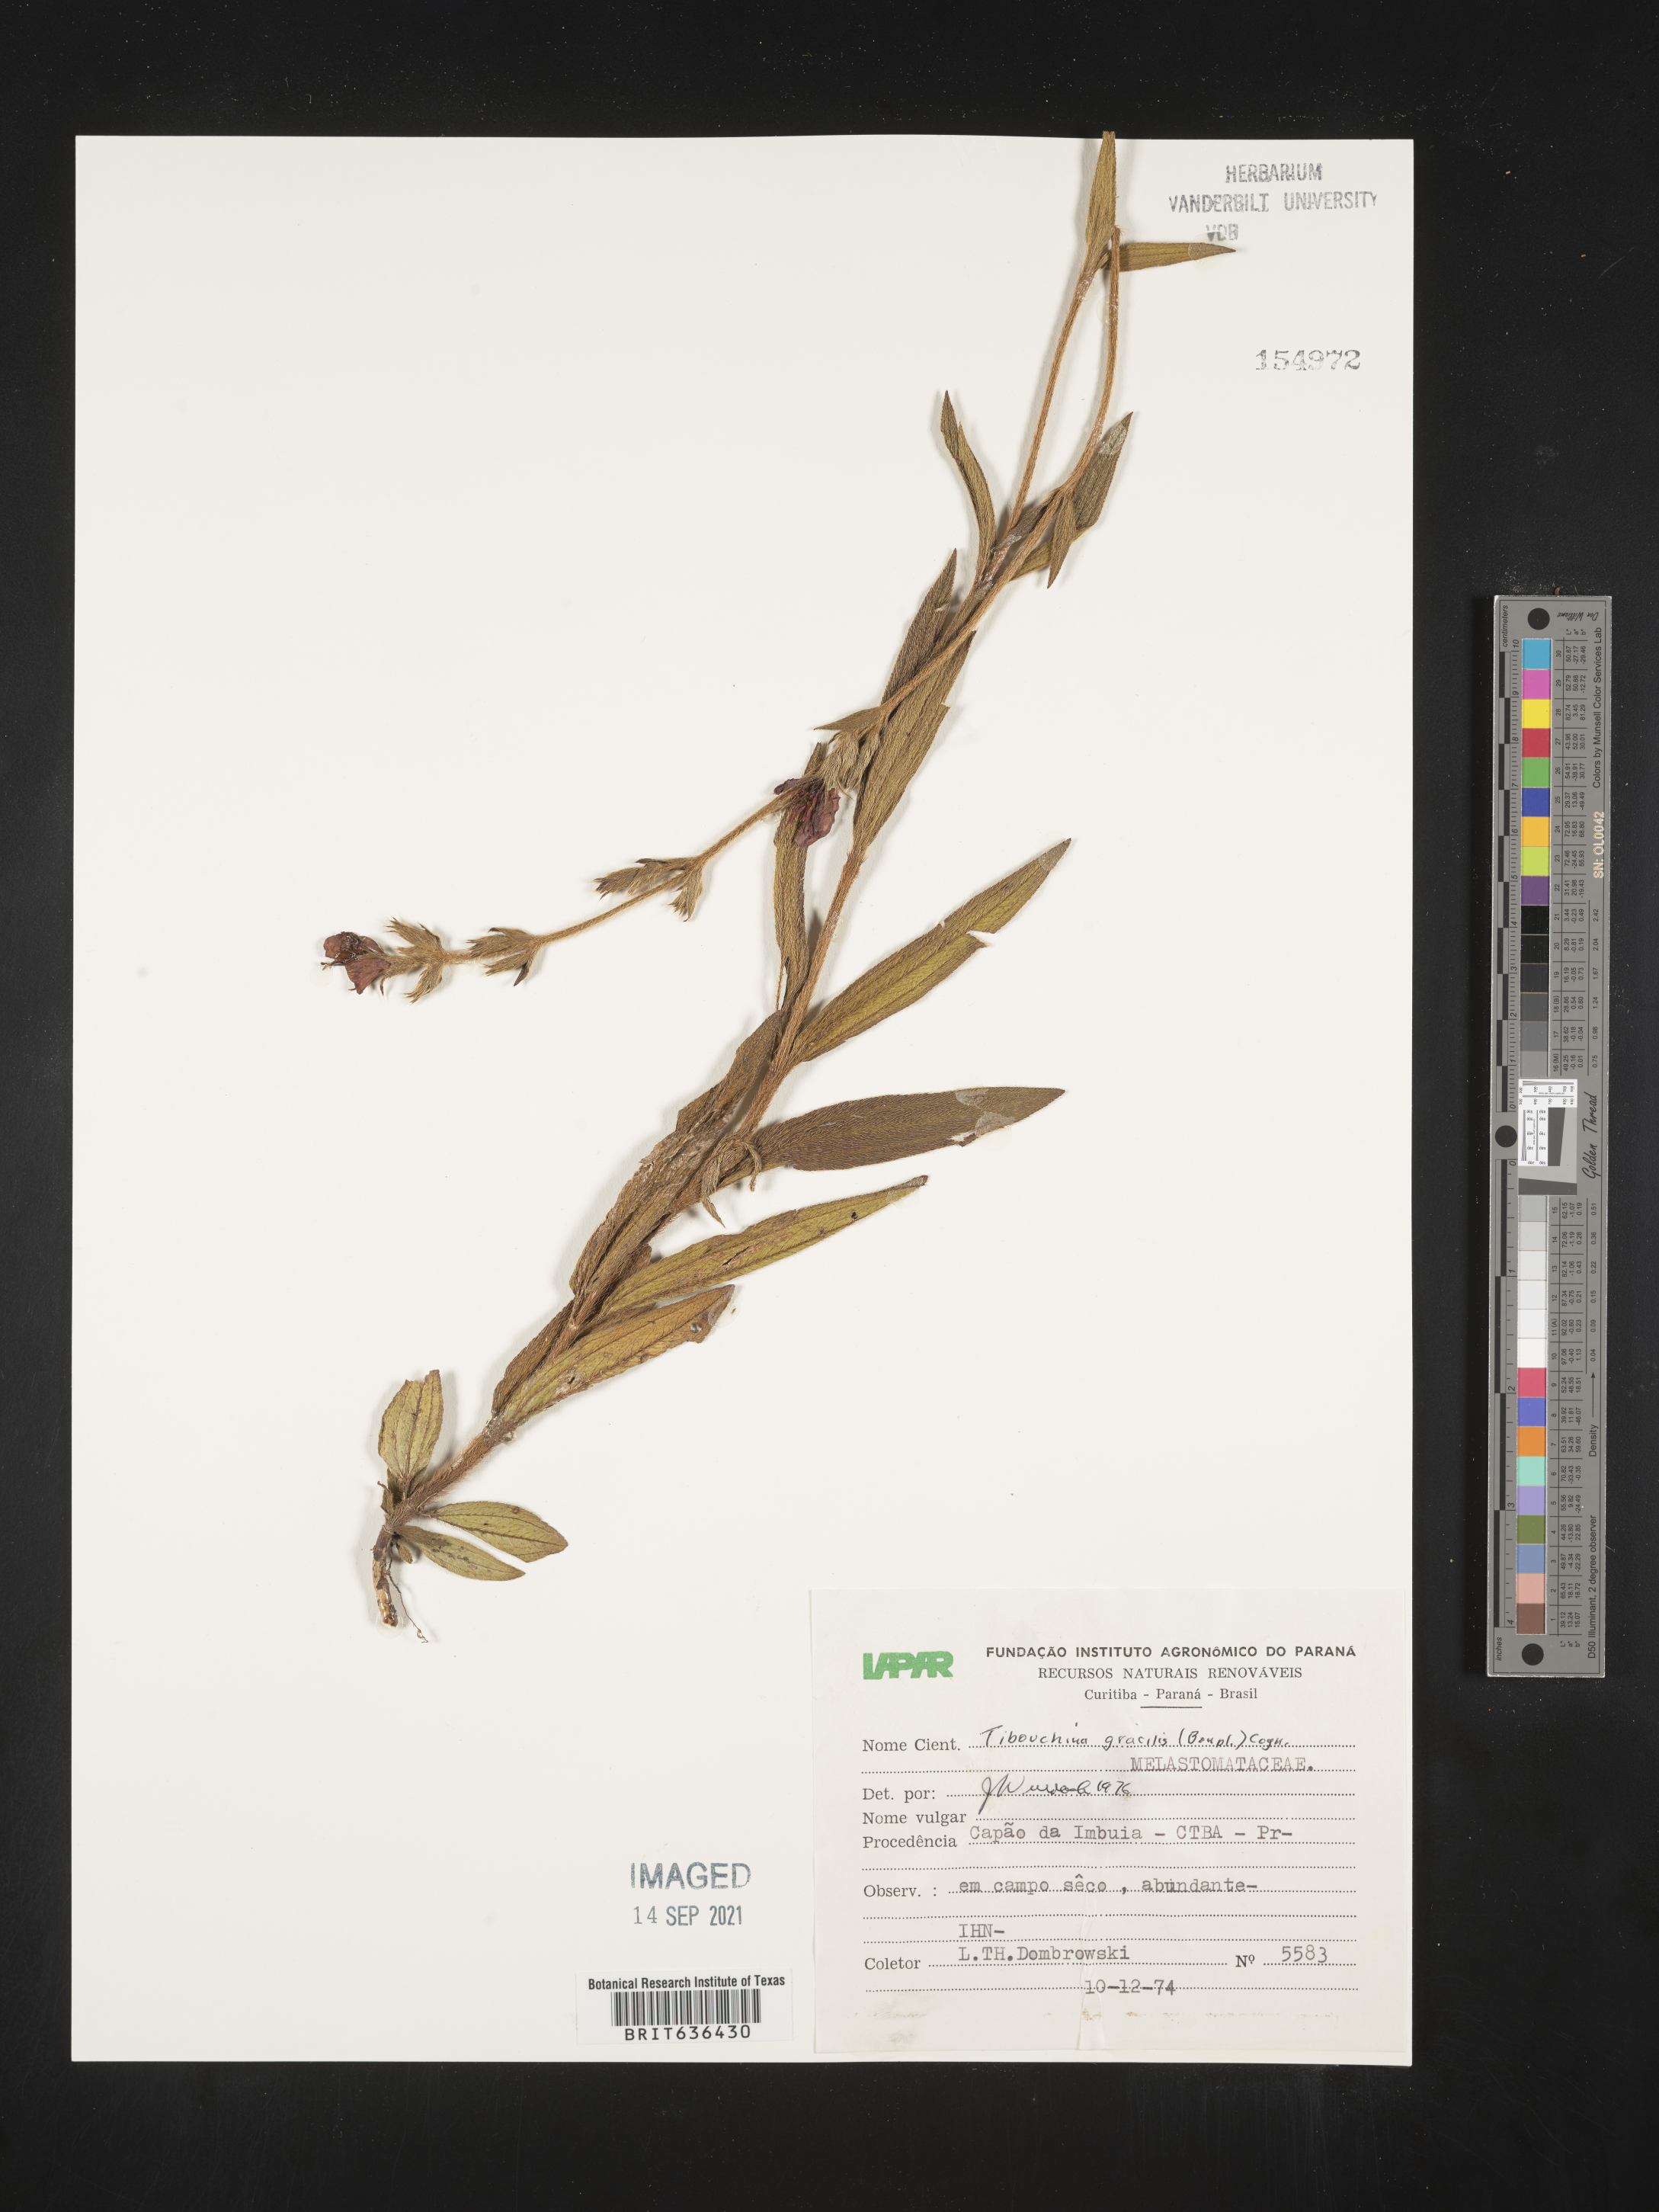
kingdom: Plantae
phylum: Tracheophyta
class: Magnoliopsida
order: Myrtales
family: Melastomataceae
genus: Tibouchina
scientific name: Tibouchina
